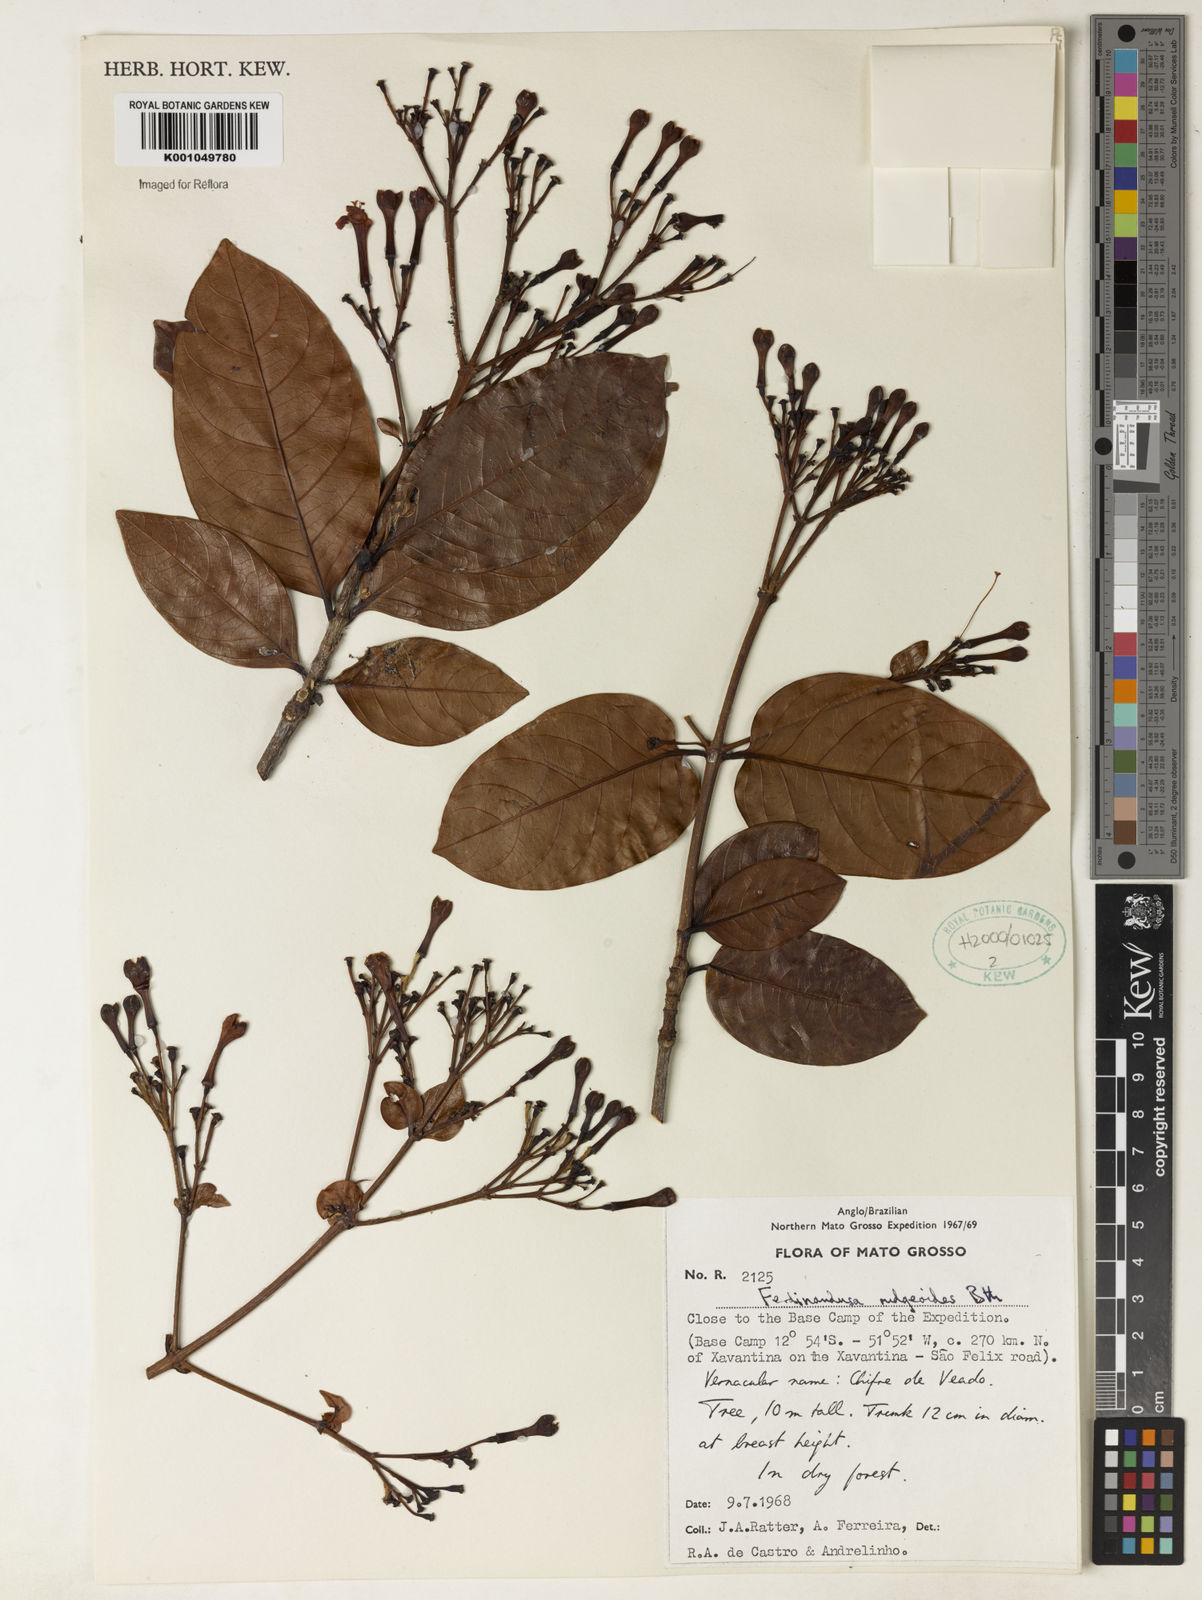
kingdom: Plantae
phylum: Tracheophyta
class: Magnoliopsida
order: Gentianales
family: Rubiaceae
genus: Ferdinandusa
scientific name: Ferdinandusa rudgeoides
